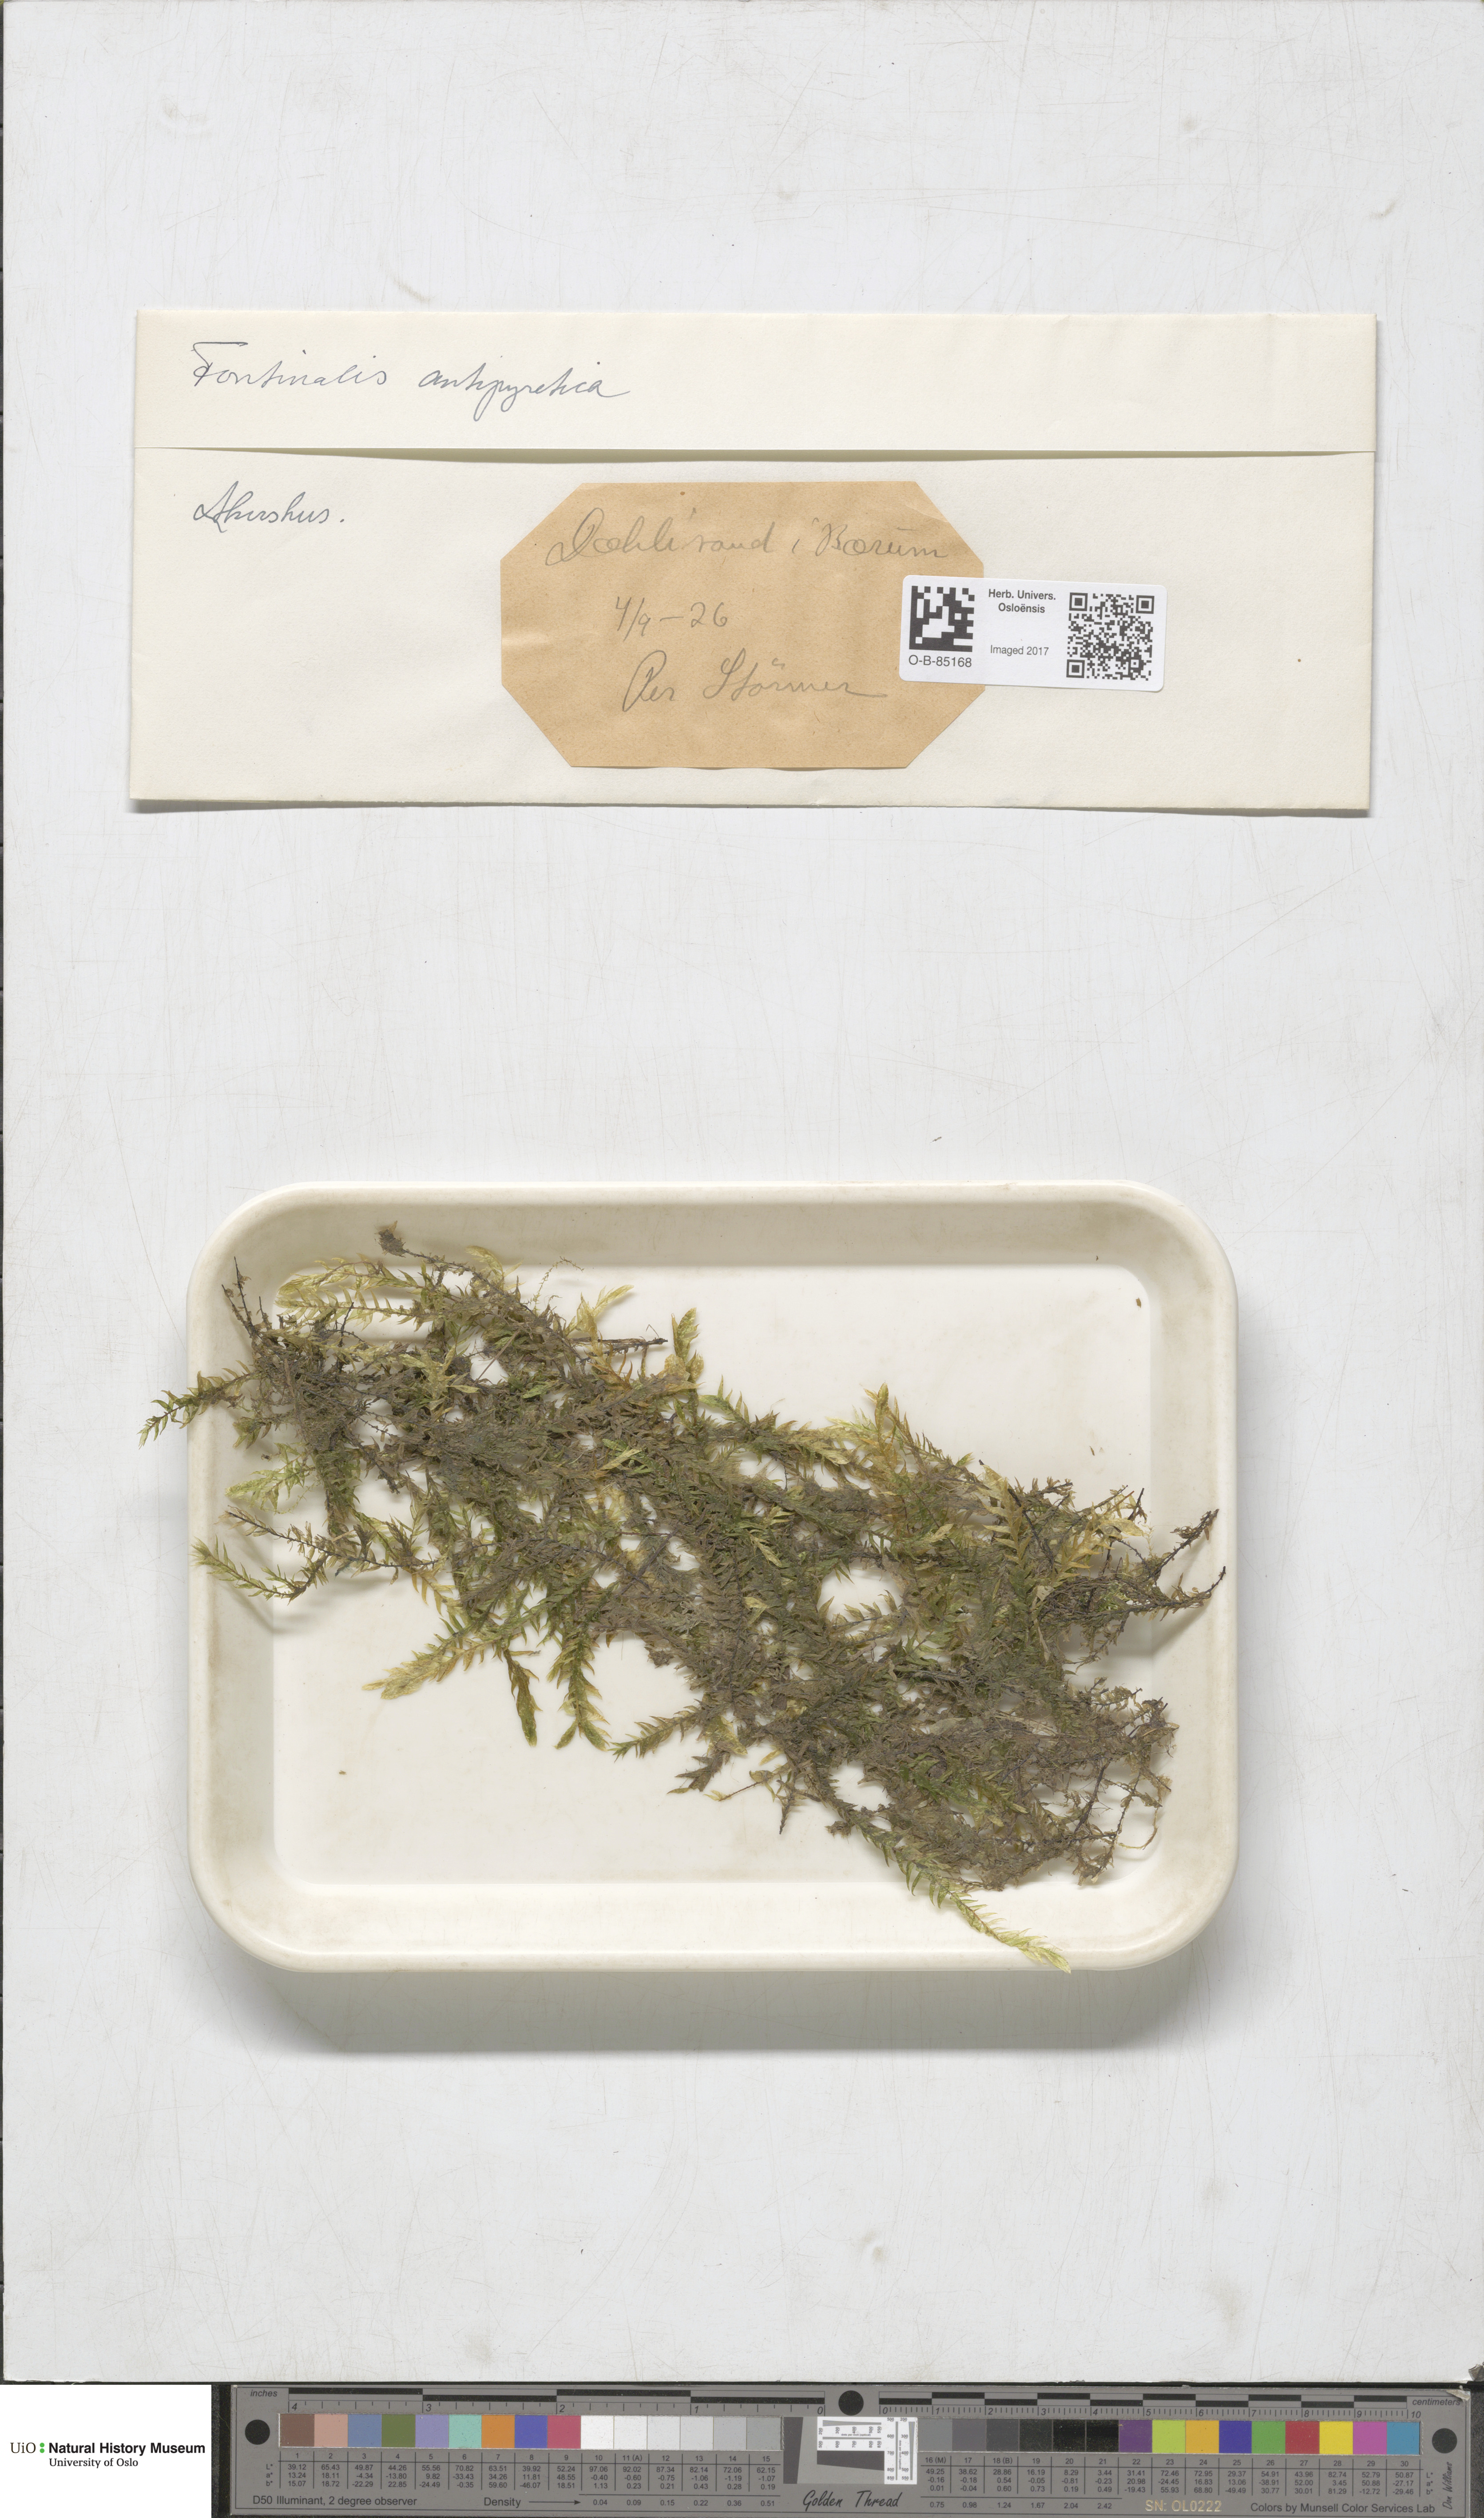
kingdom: Plantae
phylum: Bryophyta
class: Bryopsida
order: Hypnales
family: Fontinalaceae
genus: Fontinalis
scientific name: Fontinalis antipyretica
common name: Greater water-moss
